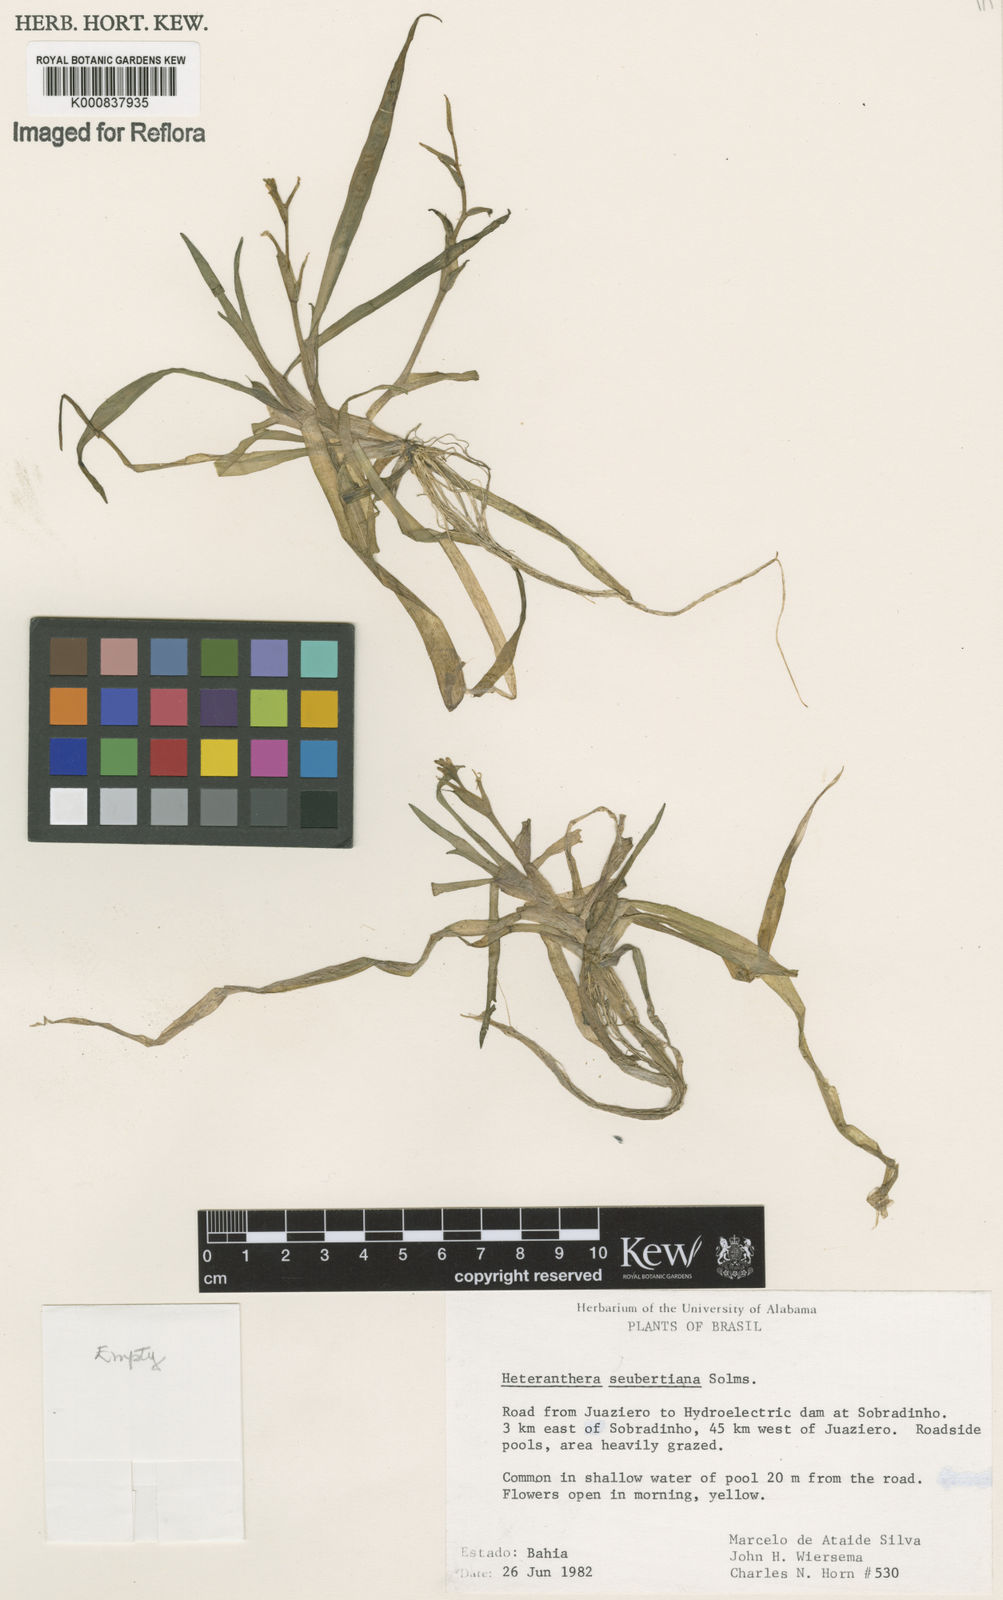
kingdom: Plantae
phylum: Tracheophyta
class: Liliopsida
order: Commelinales
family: Pontederiaceae
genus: Heteranthera
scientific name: Heteranthera seubertiana
